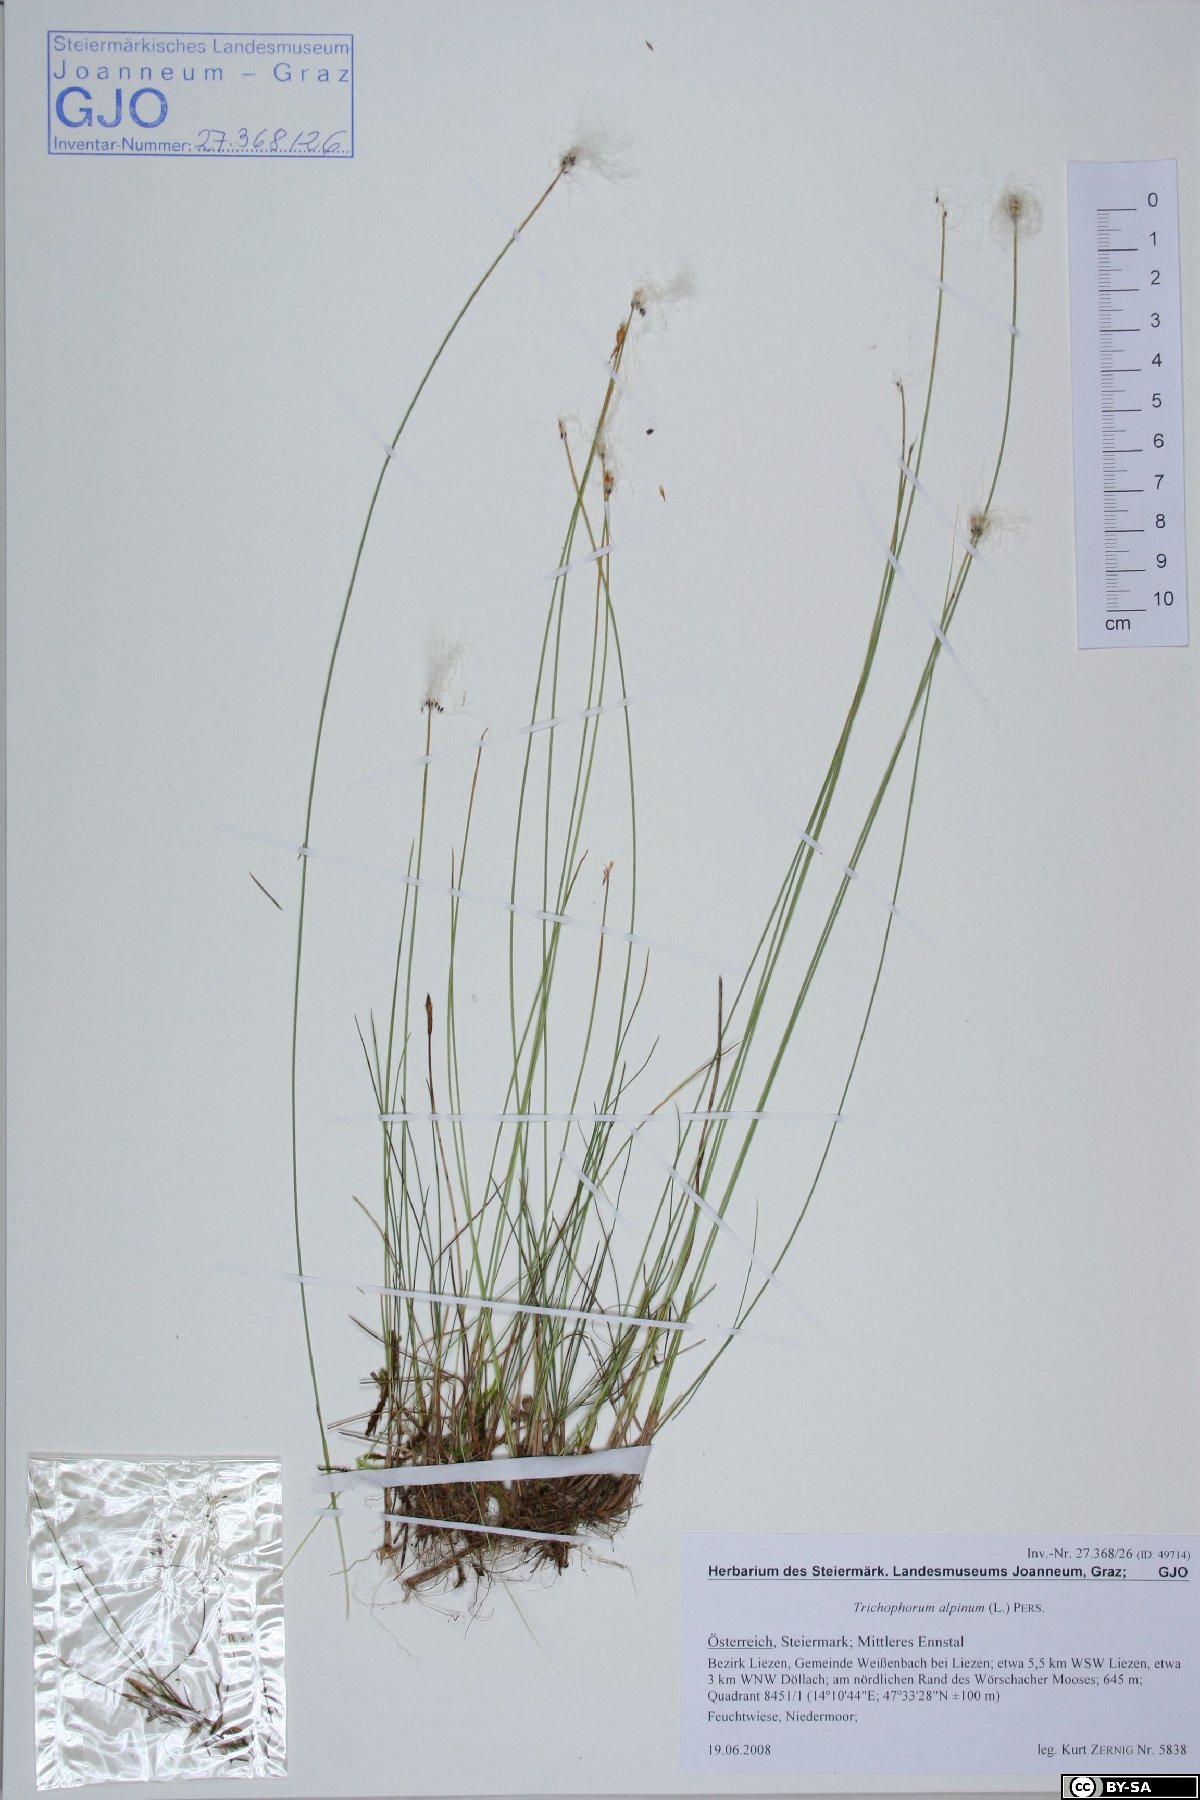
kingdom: Plantae
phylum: Tracheophyta
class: Liliopsida
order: Poales
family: Cyperaceae
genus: Trichophorum
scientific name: Trichophorum alpinum
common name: Alpine bulrush
